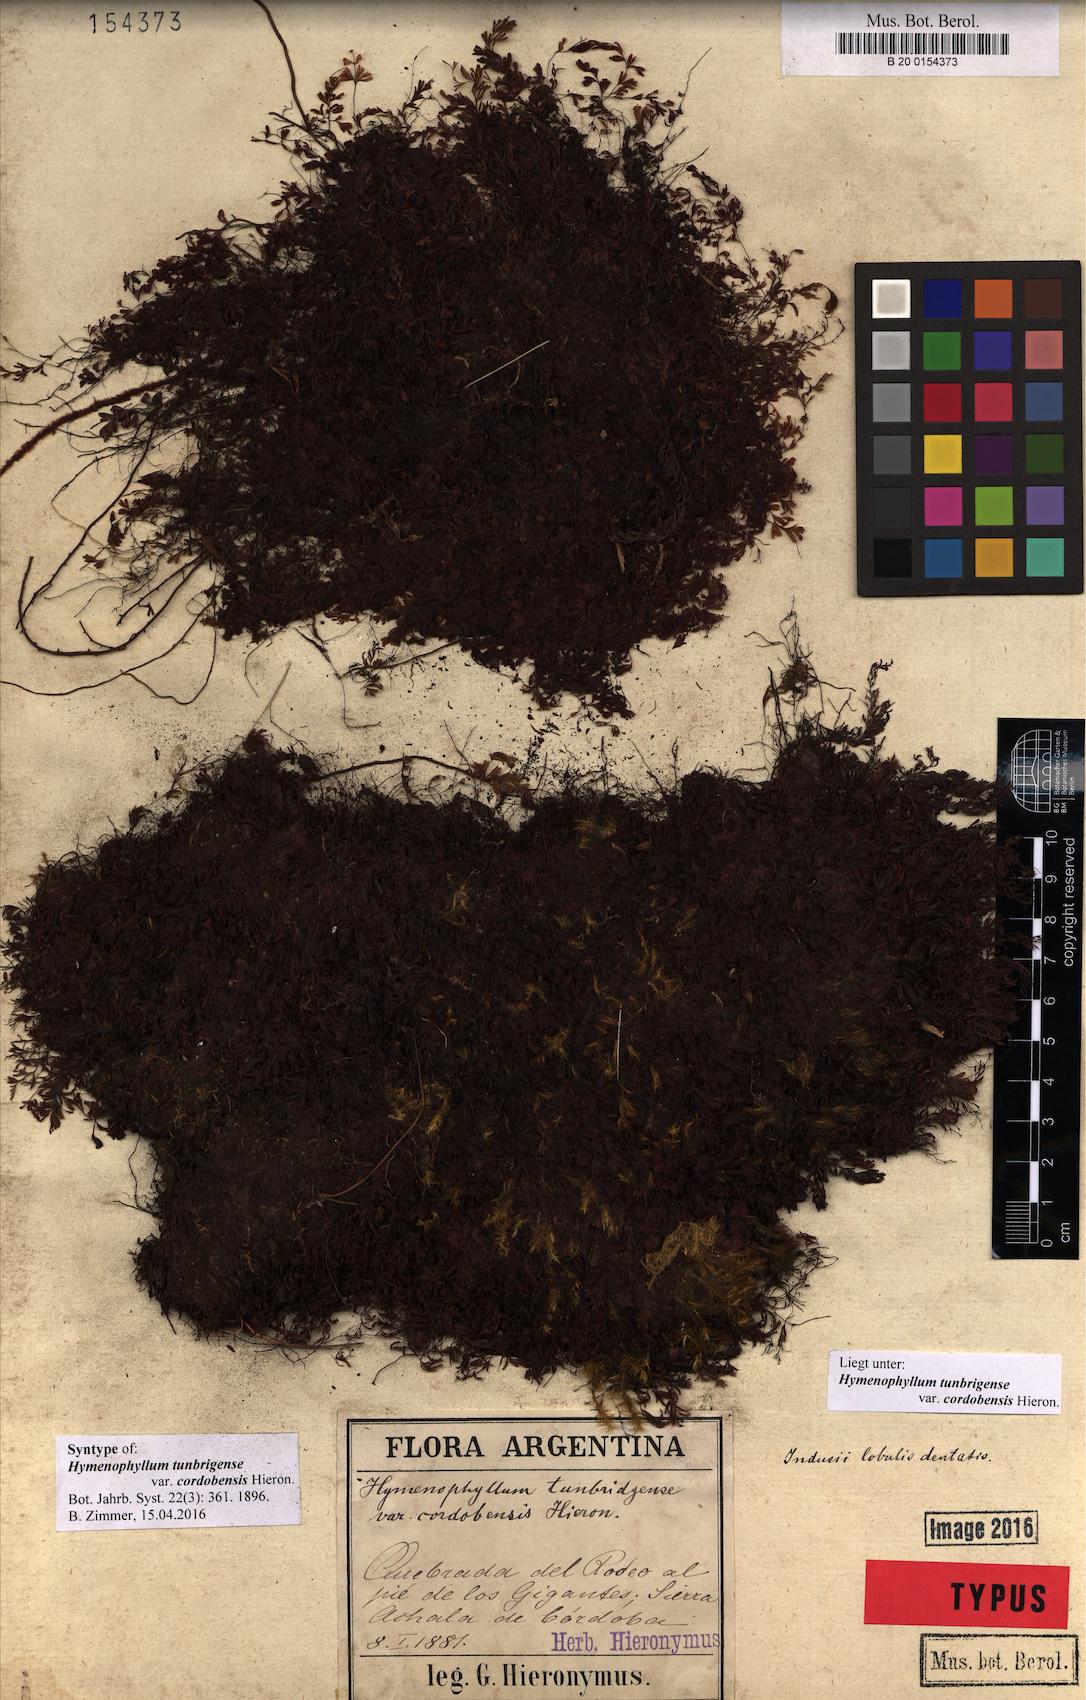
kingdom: Plantae
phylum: Tracheophyta
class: Polypodiopsida
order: Hymenophyllales
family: Hymenophyllaceae
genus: Hymenophyllum
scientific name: Hymenophyllum cordobense
